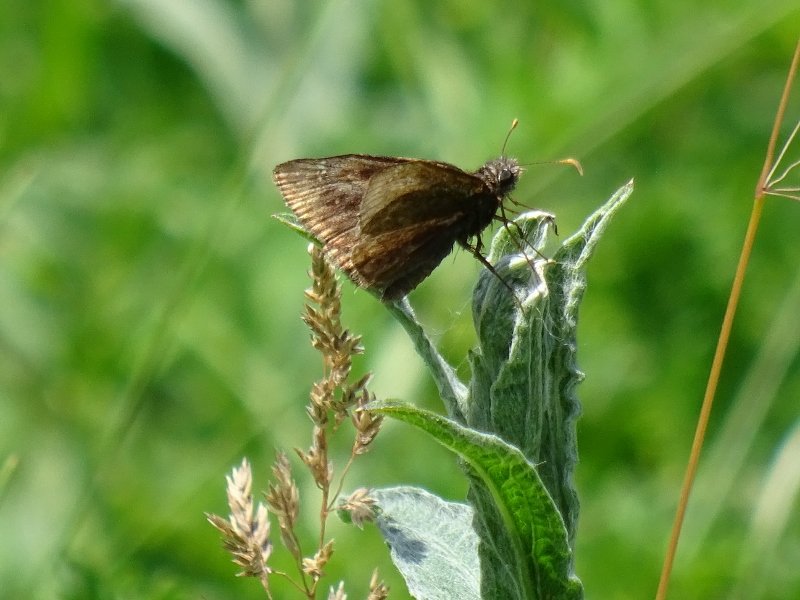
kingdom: Animalia
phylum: Arthropoda
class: Insecta
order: Lepidoptera
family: Hesperiidae
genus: Gesta
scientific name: Gesta
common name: Wild Indigo Duskywing
